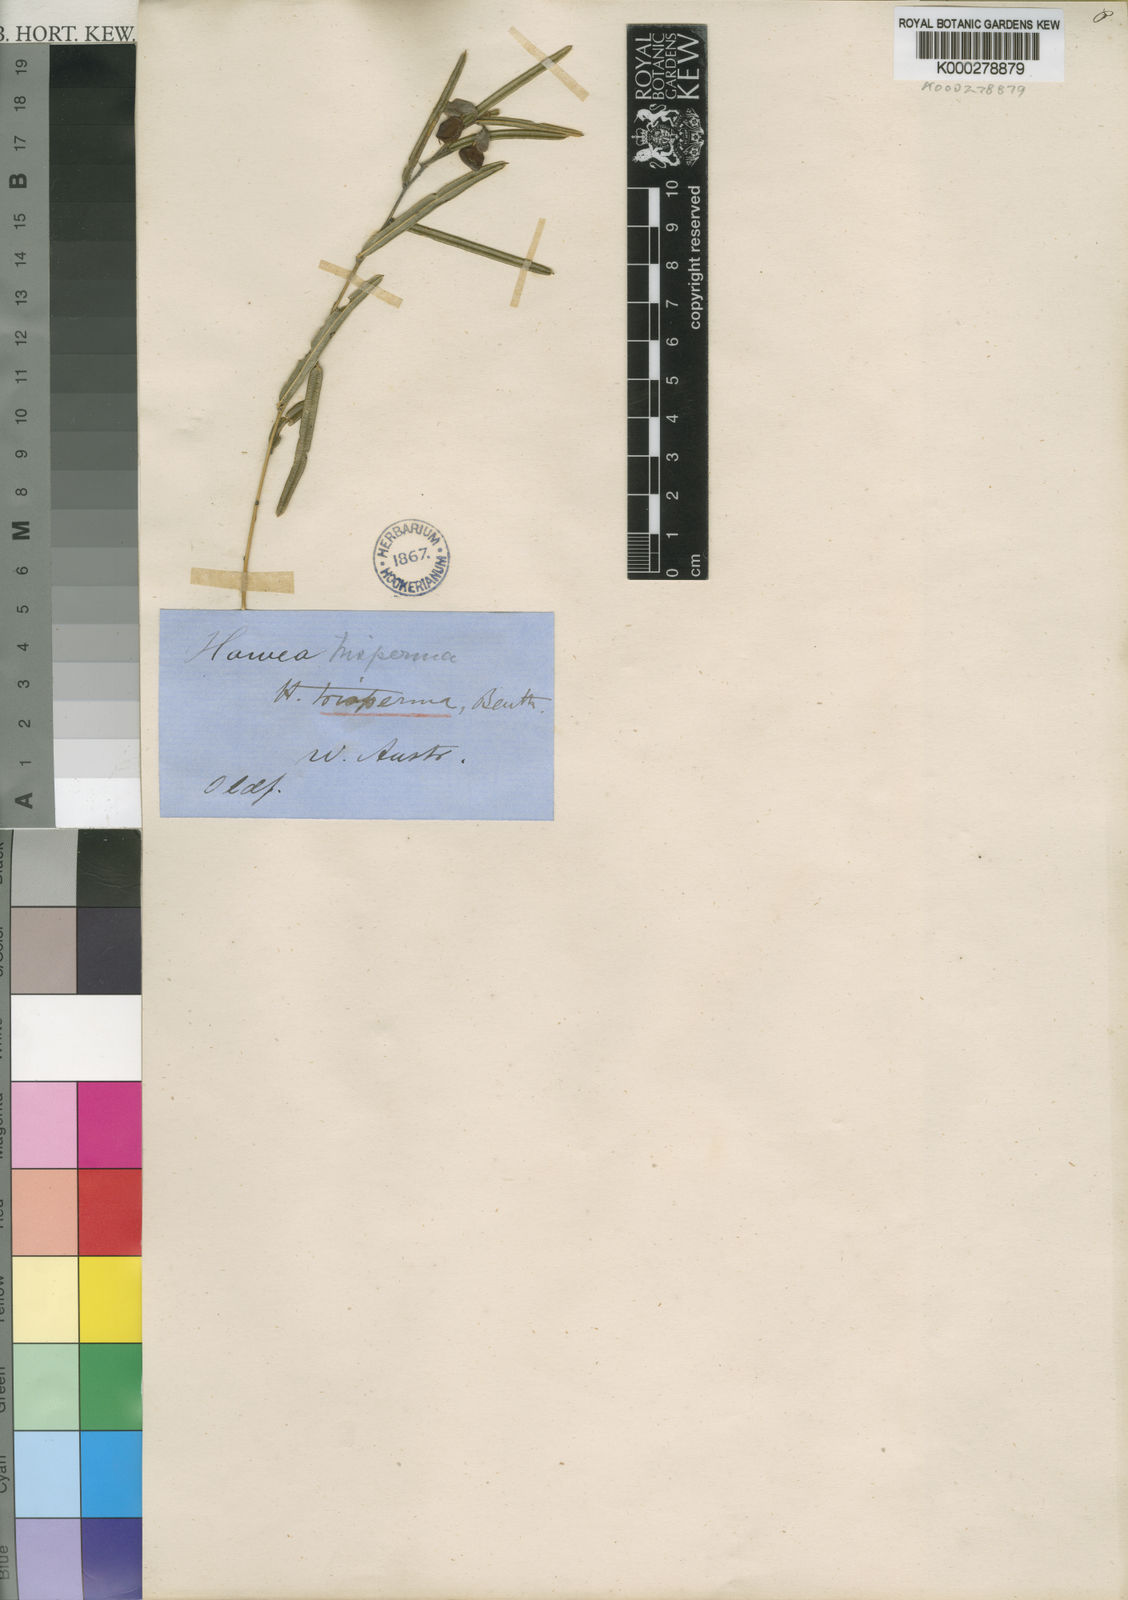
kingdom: Plantae
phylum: Tracheophyta
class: Magnoliopsida
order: Fabales
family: Fabaceae
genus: Hovea
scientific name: Hovea trisperma
